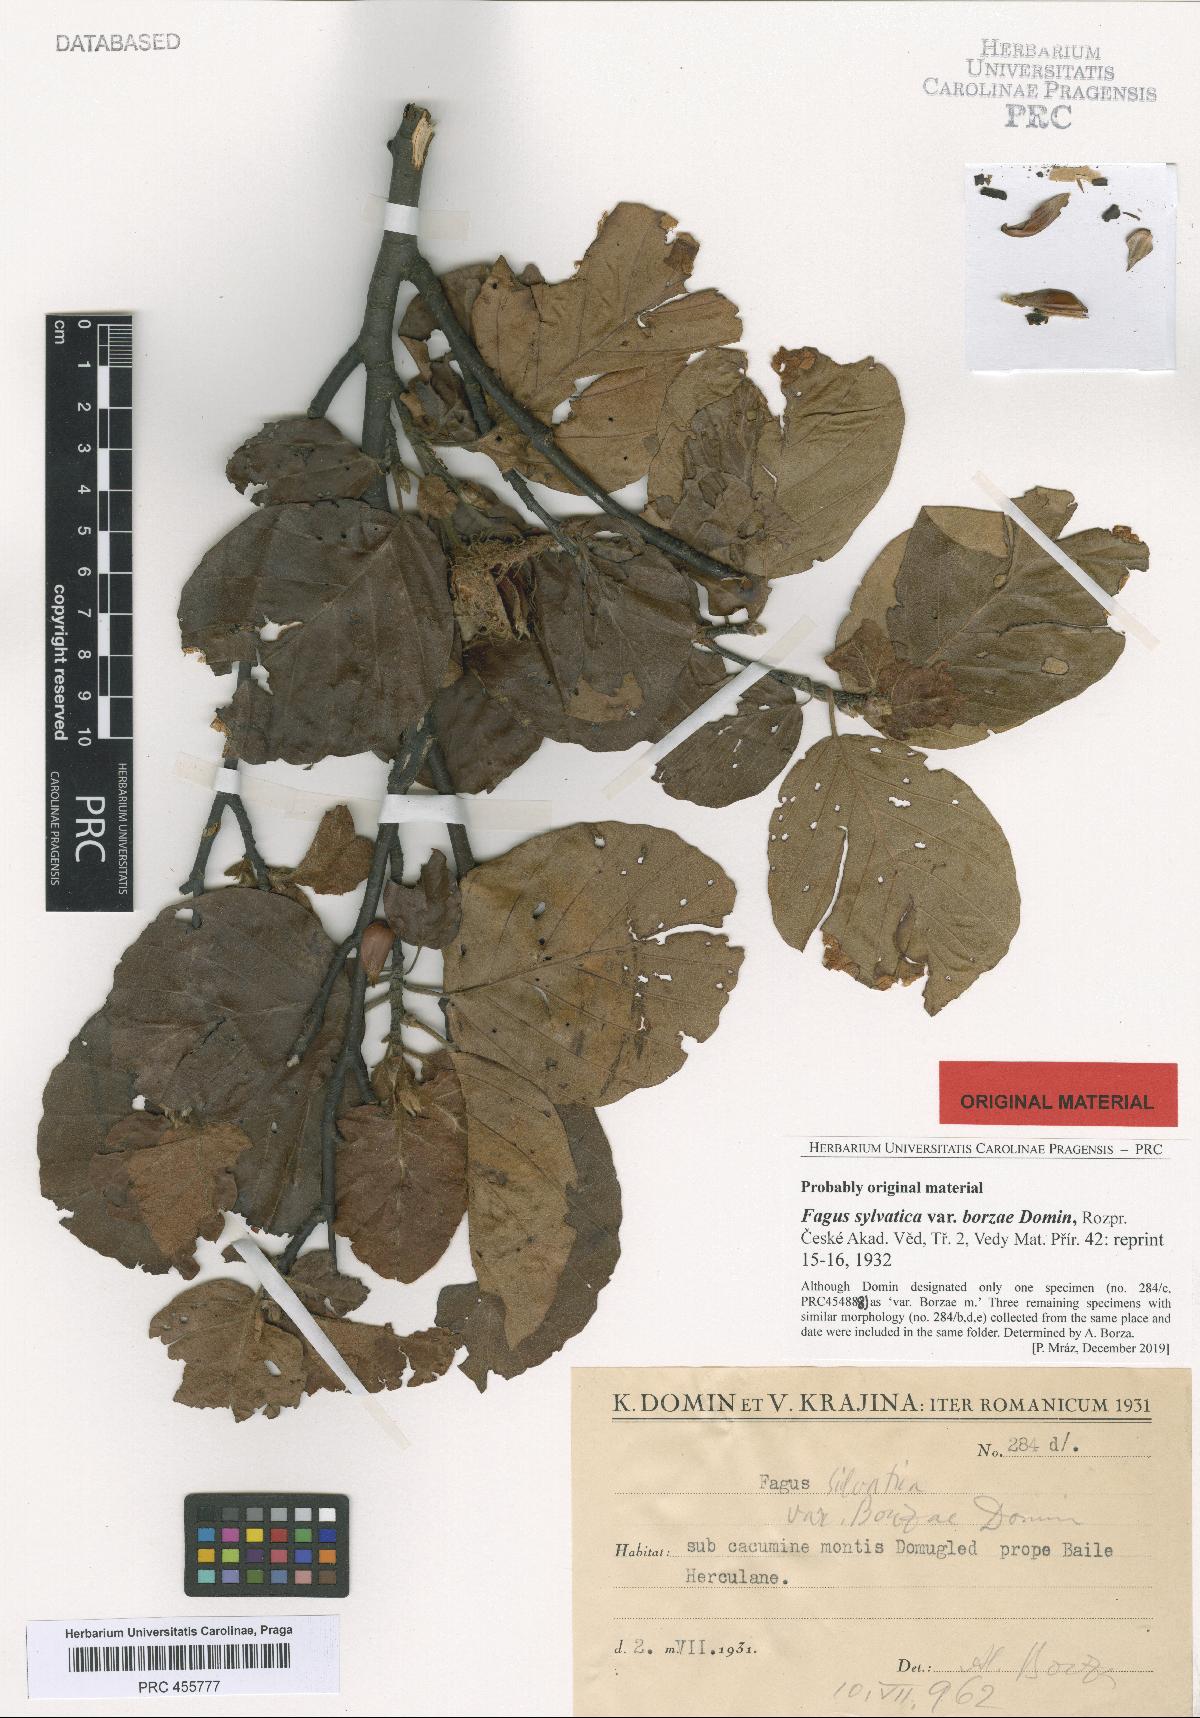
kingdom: Plantae
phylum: Tracheophyta
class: Magnoliopsida
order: Fagales
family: Fagaceae
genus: Fagus
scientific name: Fagus sylvatica
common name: Beech
